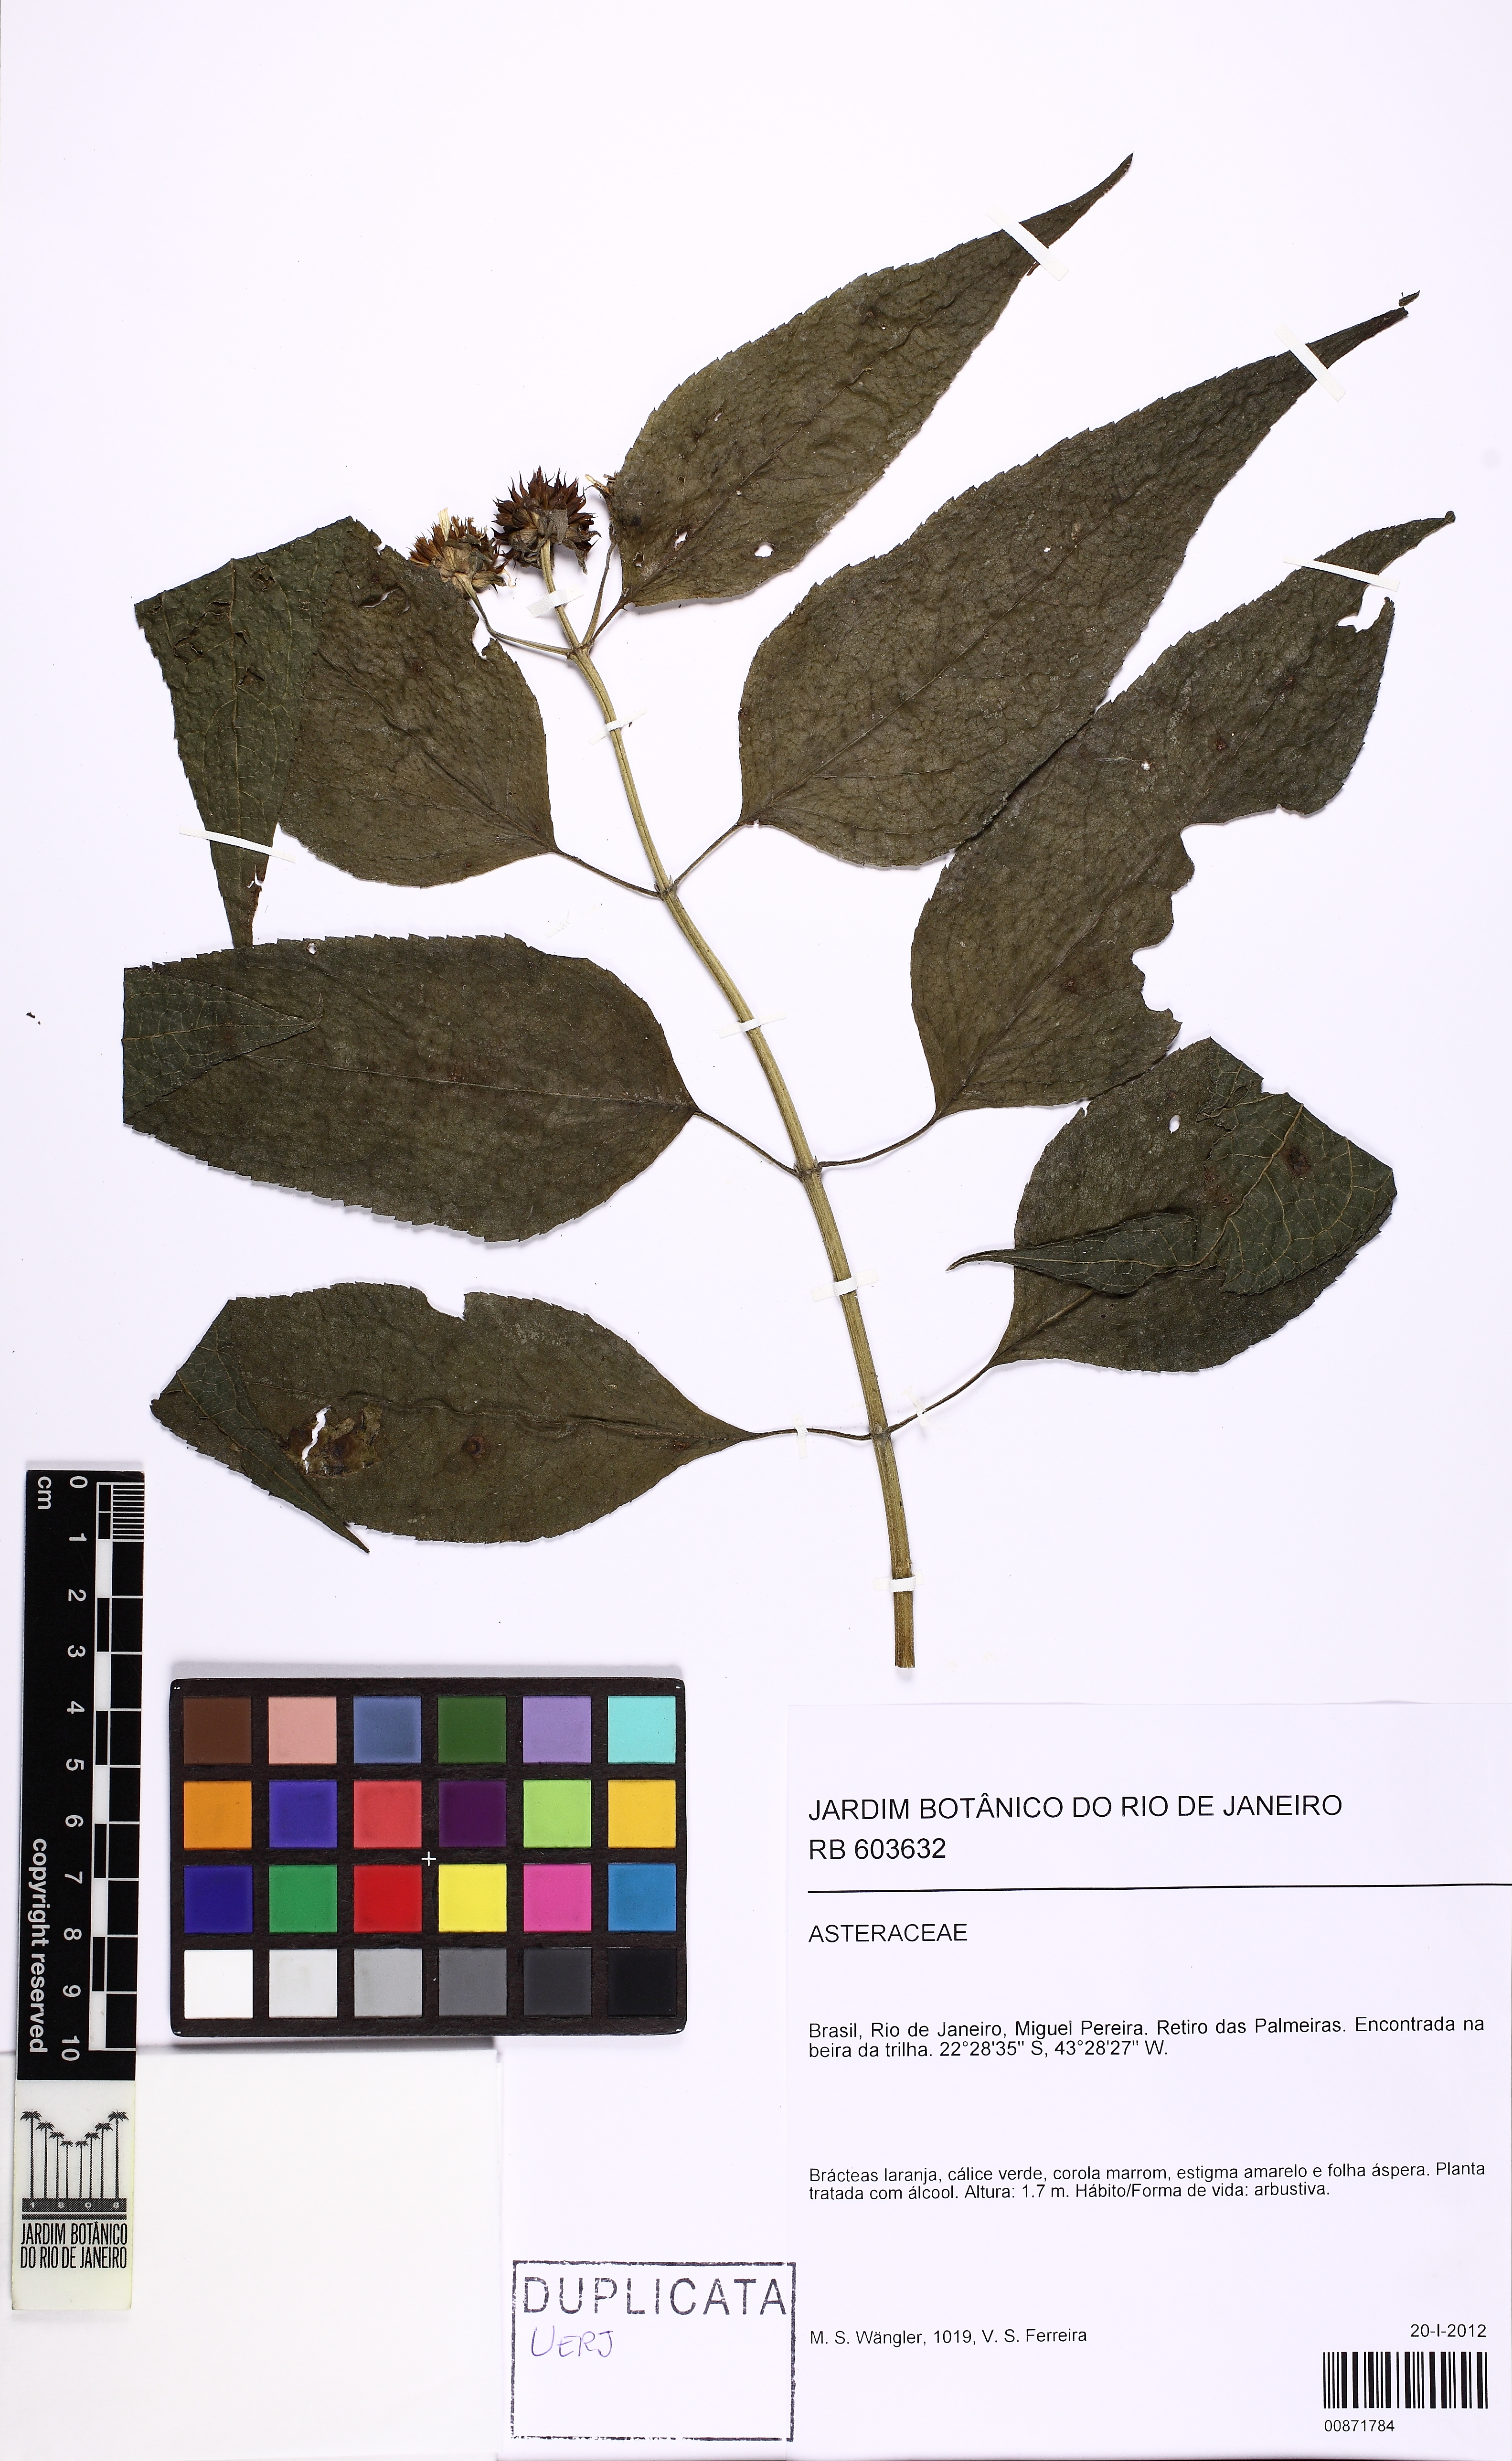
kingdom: Plantae
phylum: Tracheophyta
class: Magnoliopsida
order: Asterales
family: Asteraceae
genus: Tilesia
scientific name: Tilesia baccata
